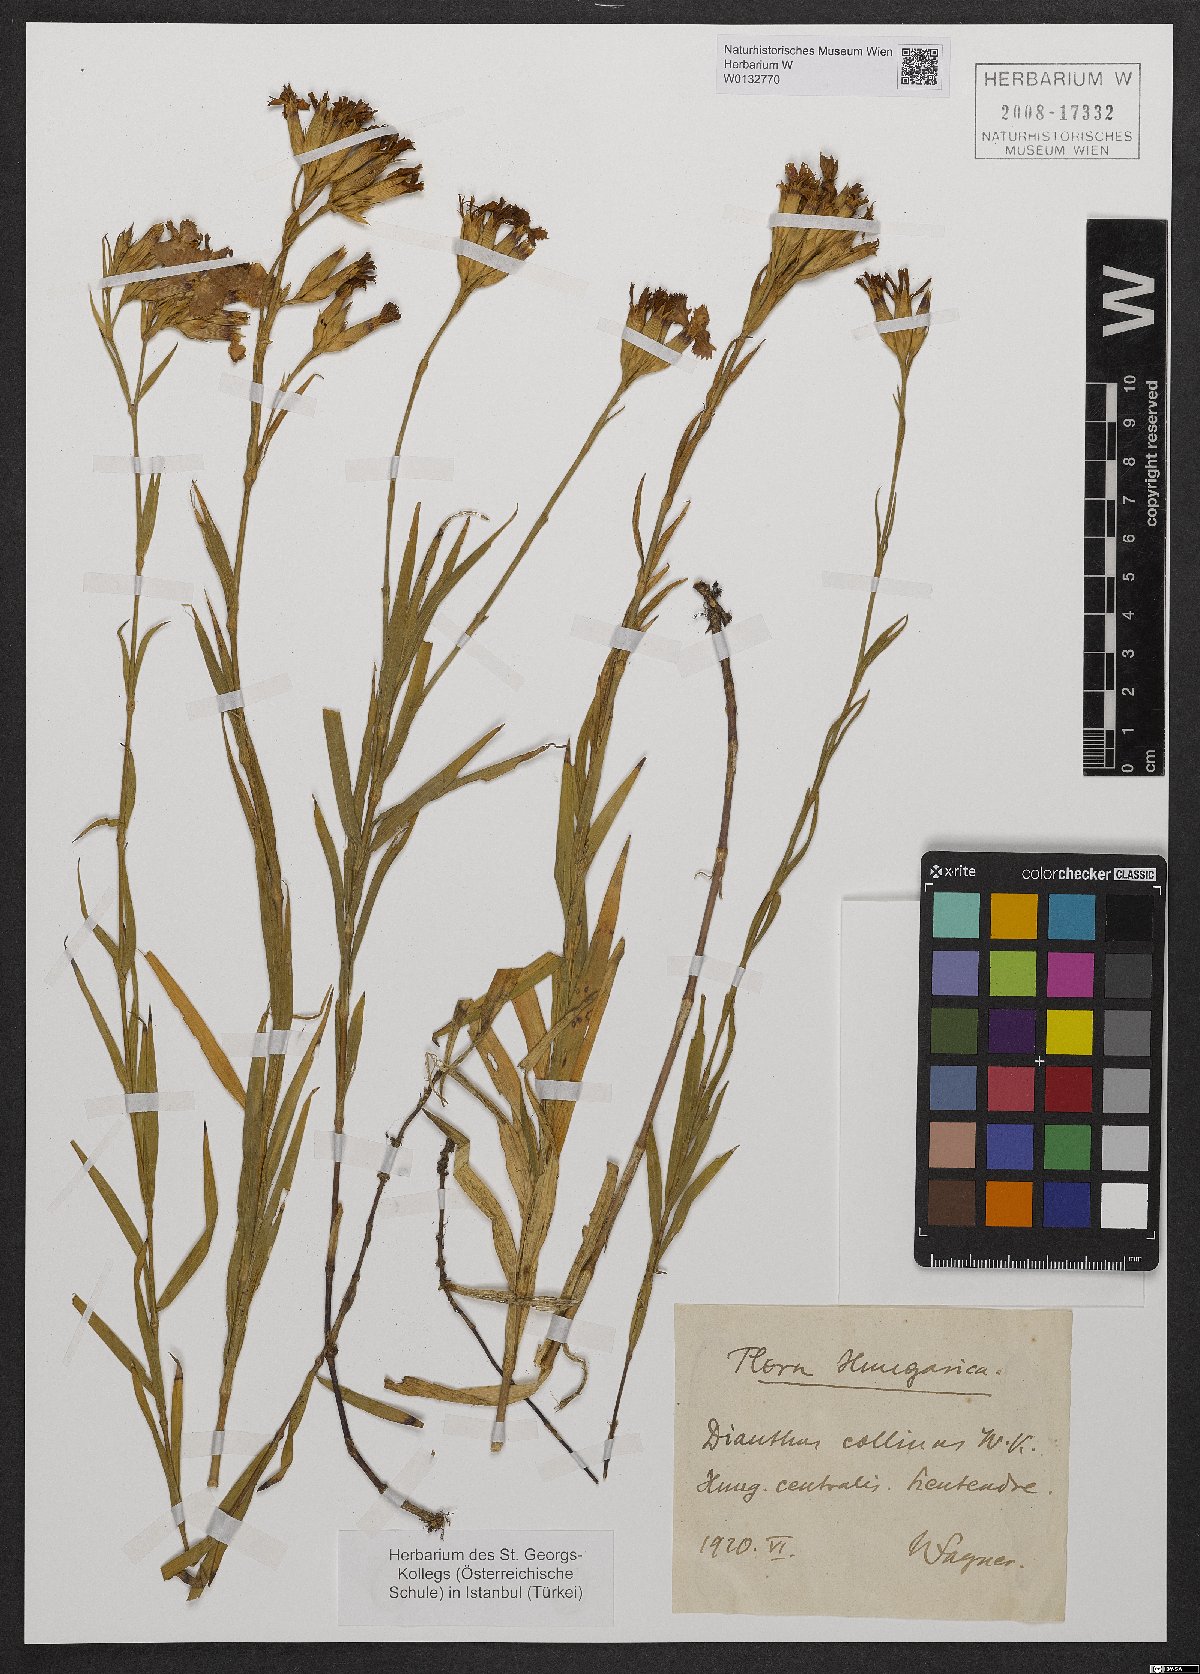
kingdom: Plantae
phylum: Tracheophyta
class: Magnoliopsida
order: Caryophyllales
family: Caryophyllaceae
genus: Dianthus
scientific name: Dianthus collinus
